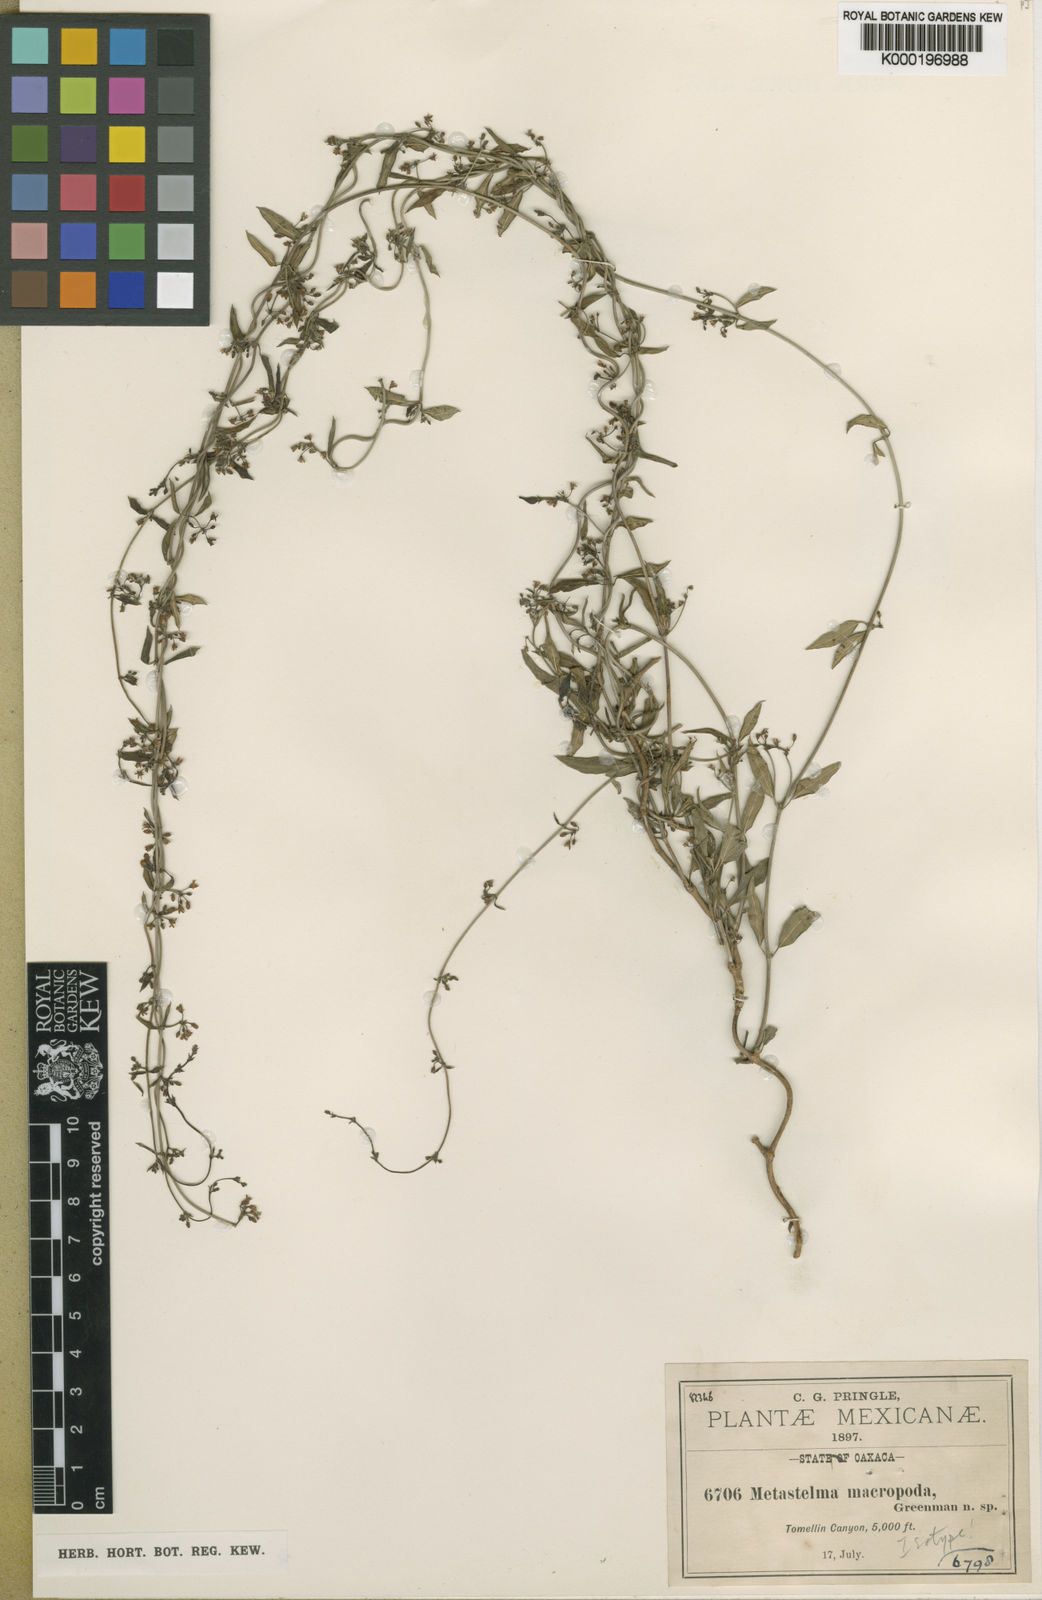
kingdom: Plantae
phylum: Tracheophyta
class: Magnoliopsida
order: Gentianales
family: Apocynaceae
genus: Metastelma
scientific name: Metastelma palmeri
